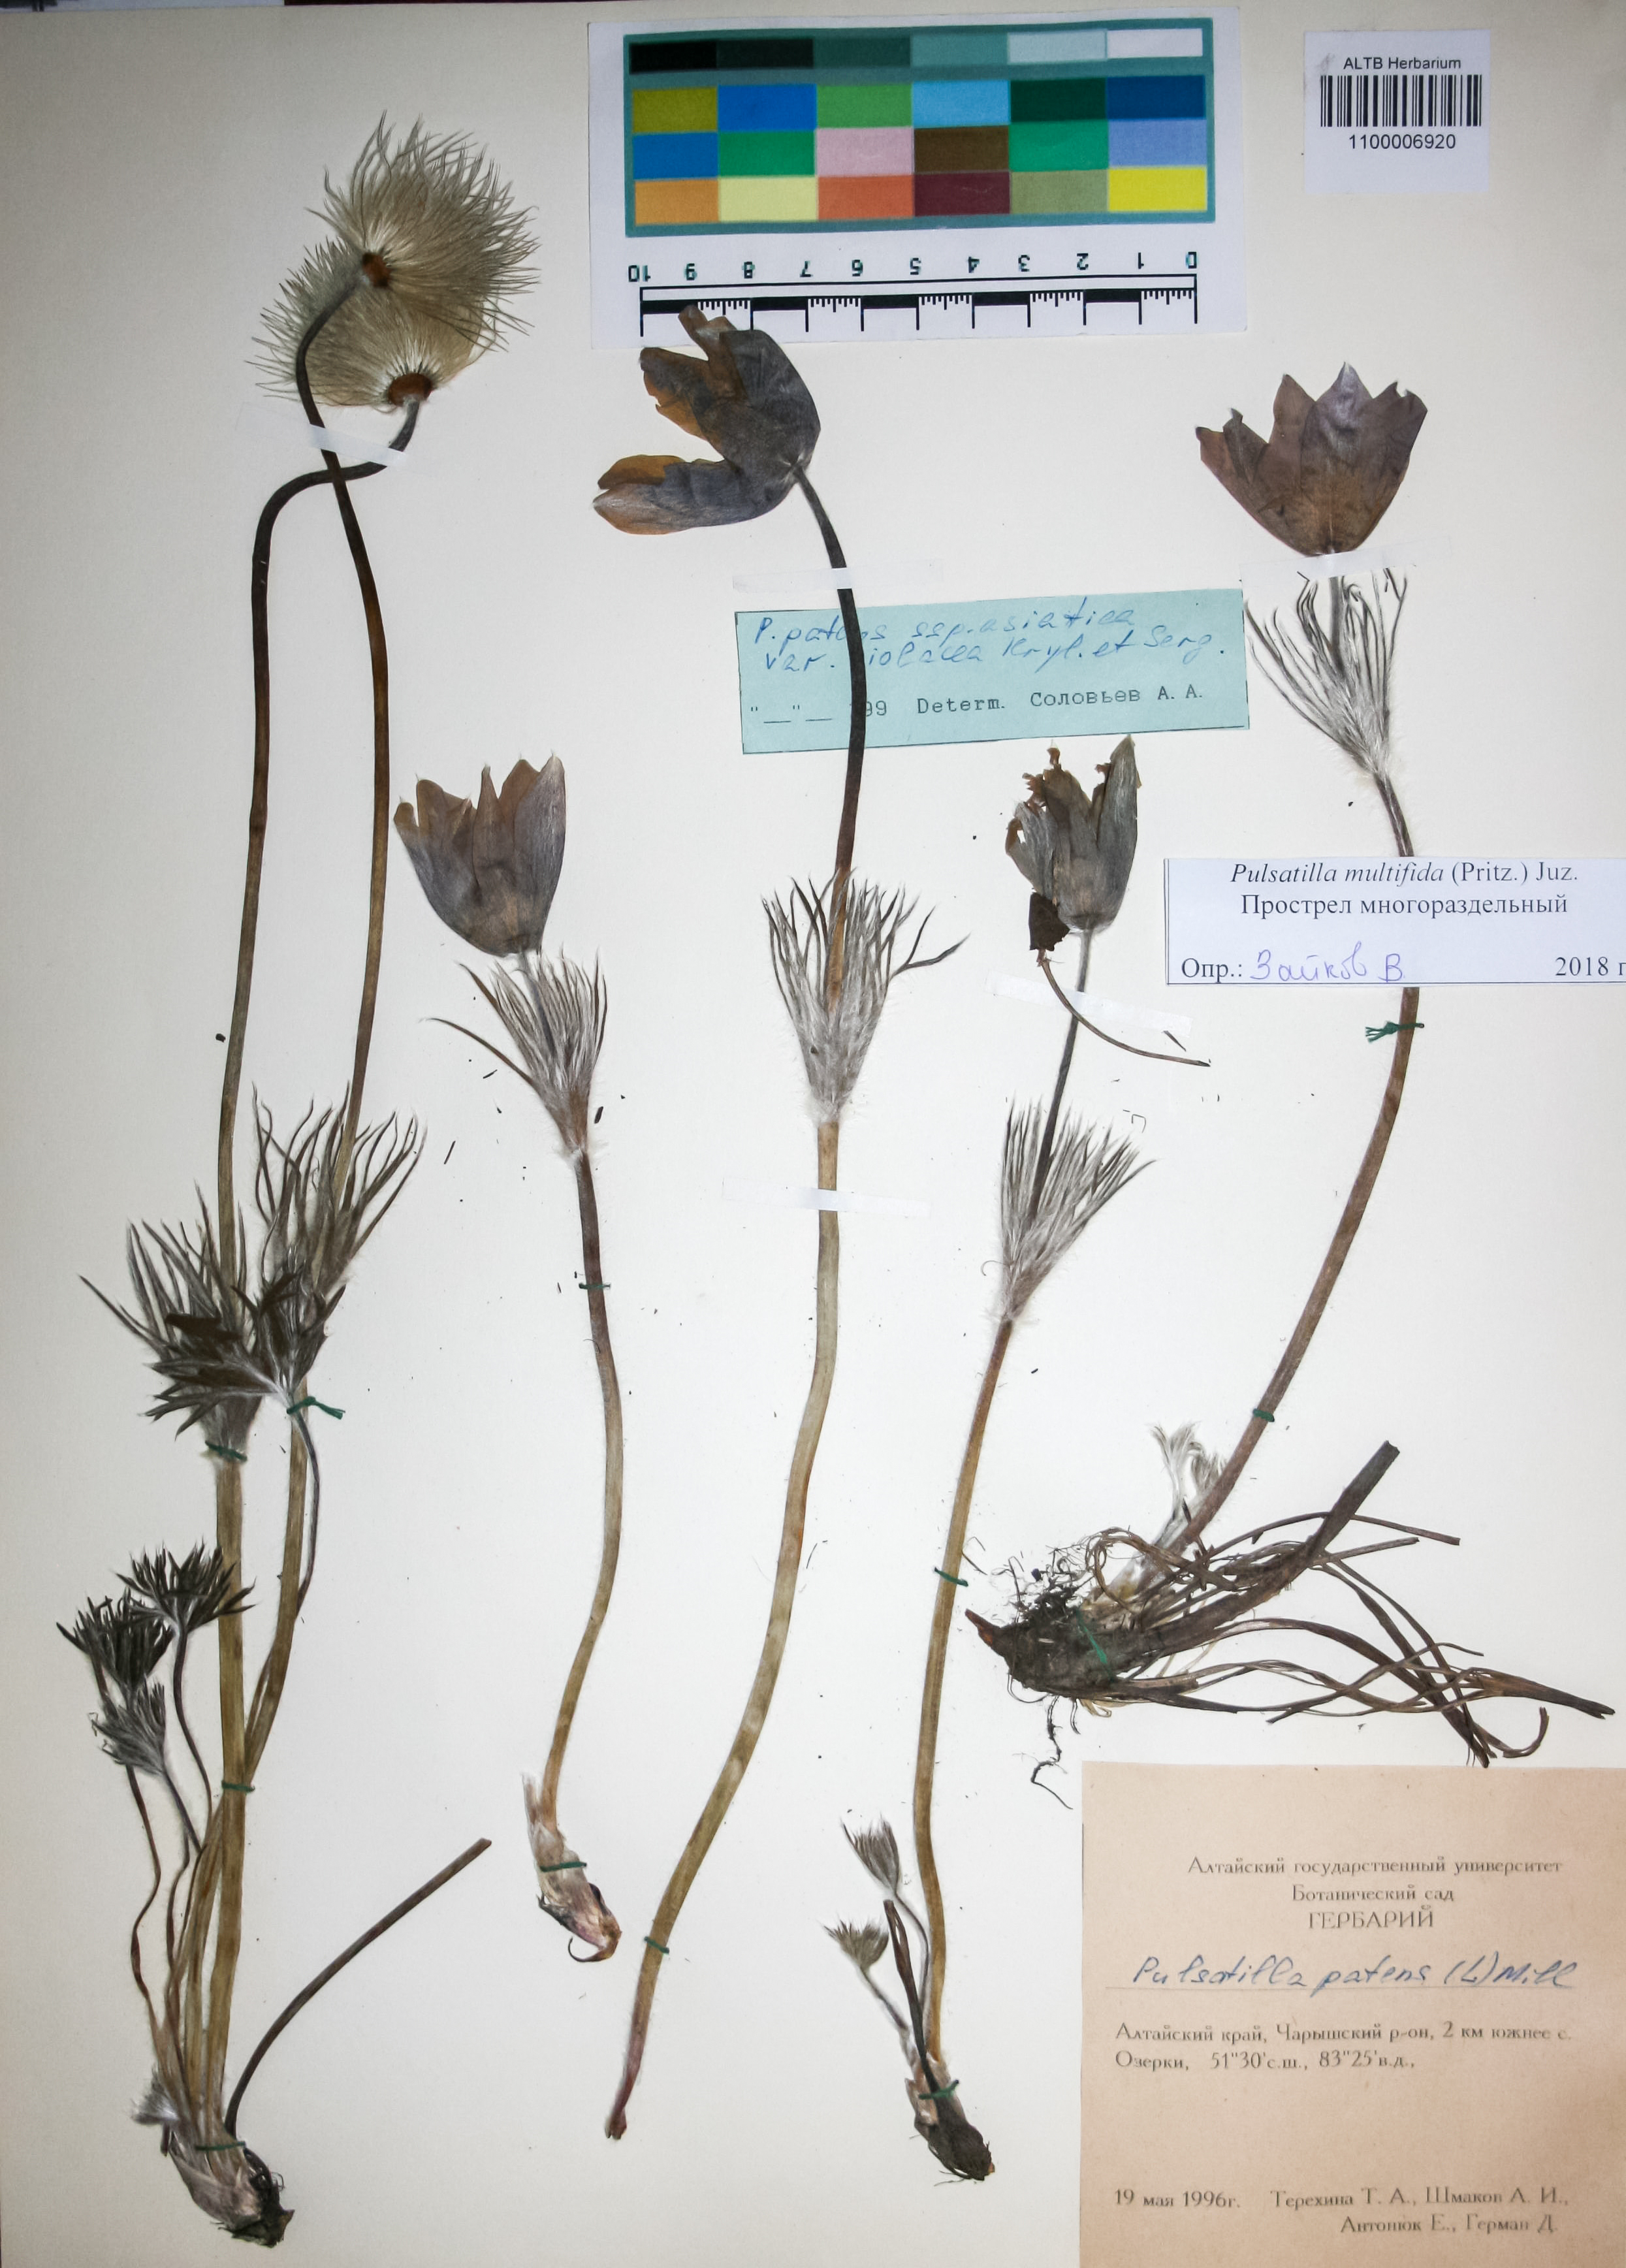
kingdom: Plantae
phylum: Tracheophyta
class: Magnoliopsida
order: Ranunculales
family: Ranunculaceae
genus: Pulsatilla
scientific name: Pulsatilla patens
